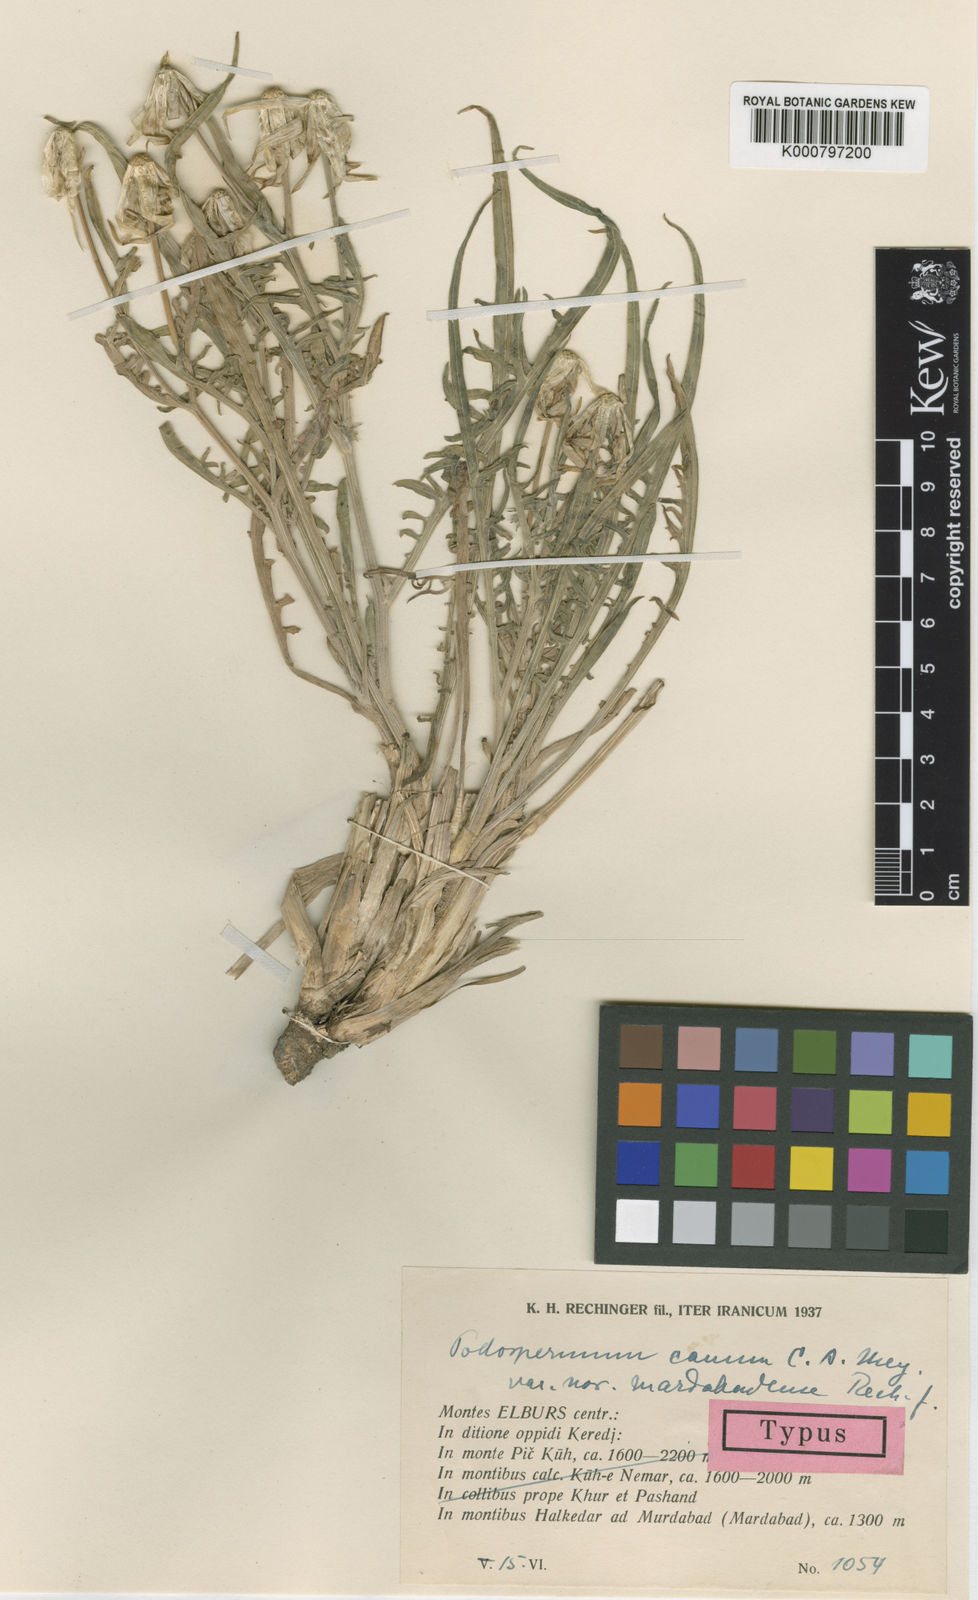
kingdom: Plantae
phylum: Tracheophyta
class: Magnoliopsida
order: Asterales
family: Asteraceae
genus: Scorzonera
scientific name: Scorzonera cana
